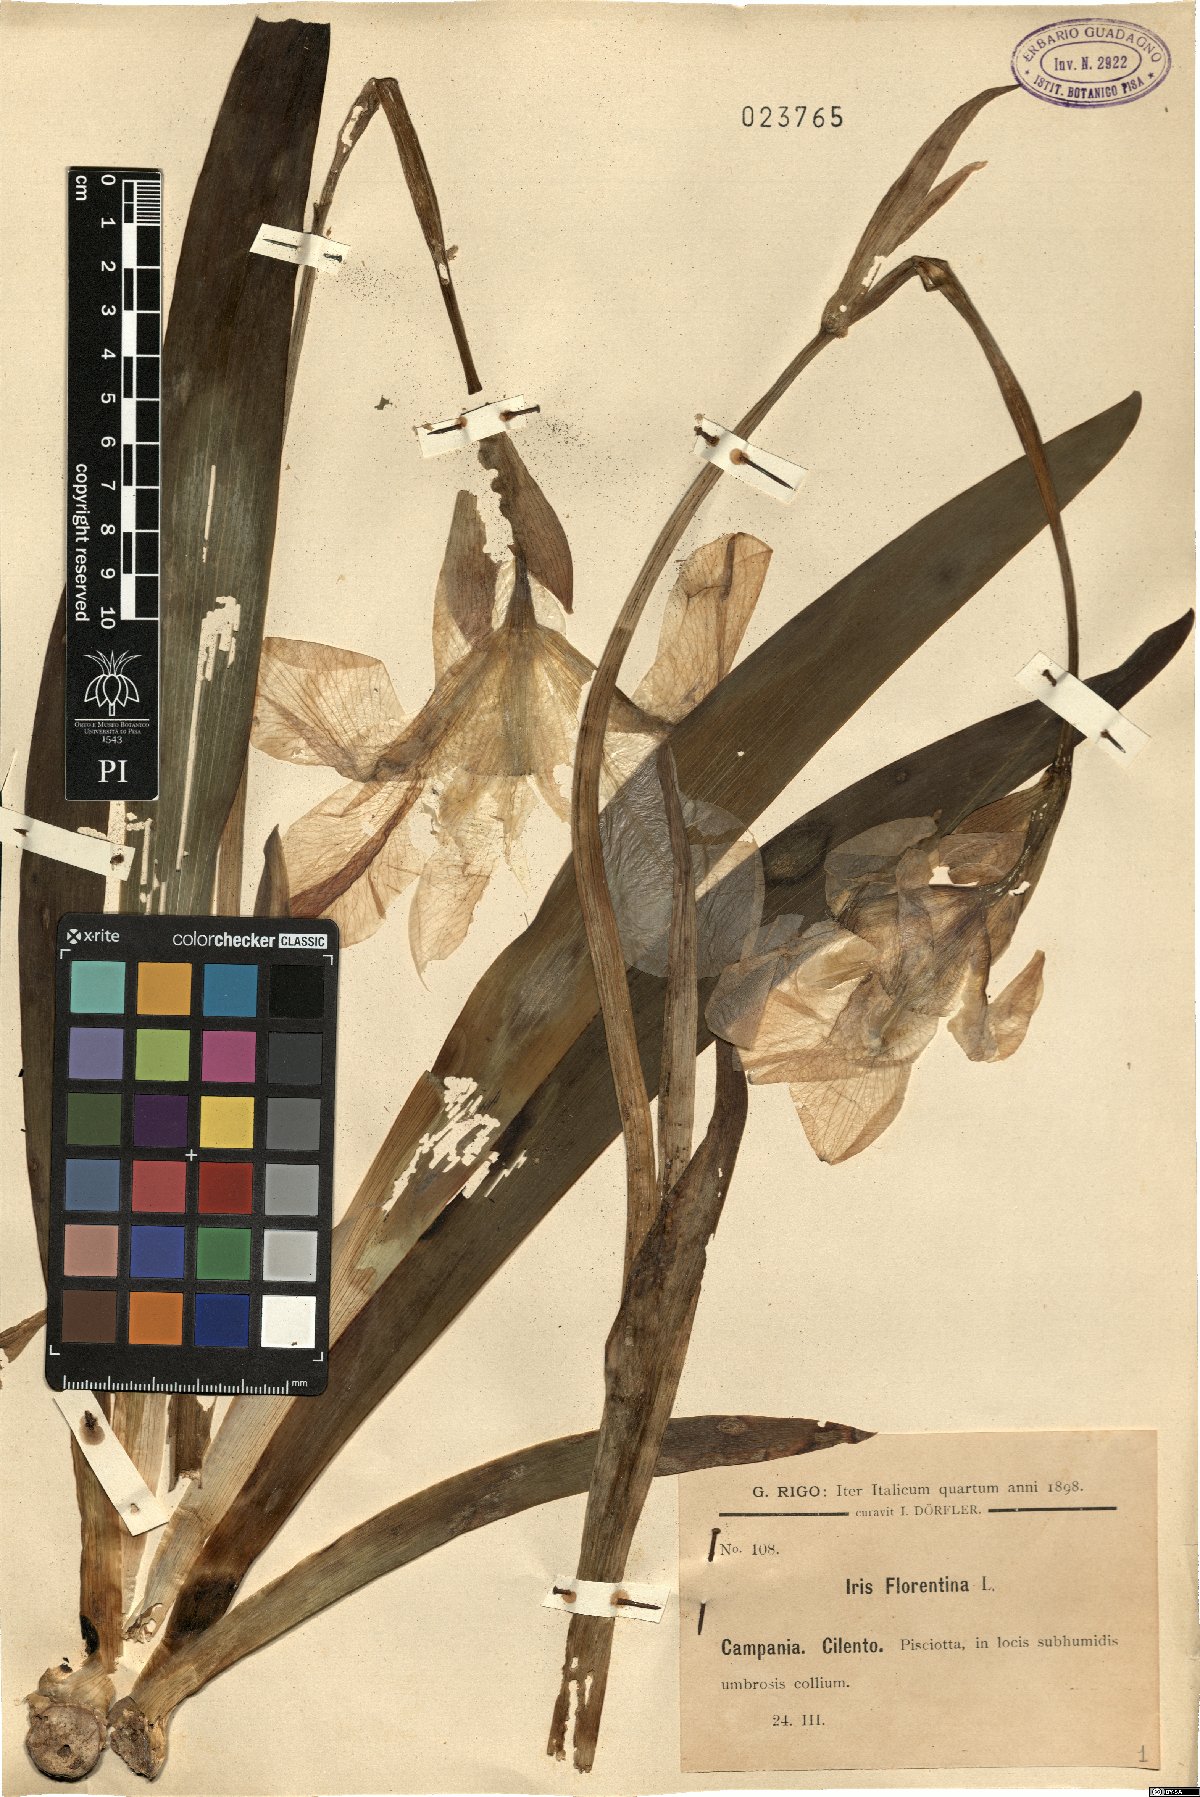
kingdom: Plantae
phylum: Tracheophyta
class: Liliopsida
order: Asparagales
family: Iridaceae
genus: Iris
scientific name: Iris florentina
